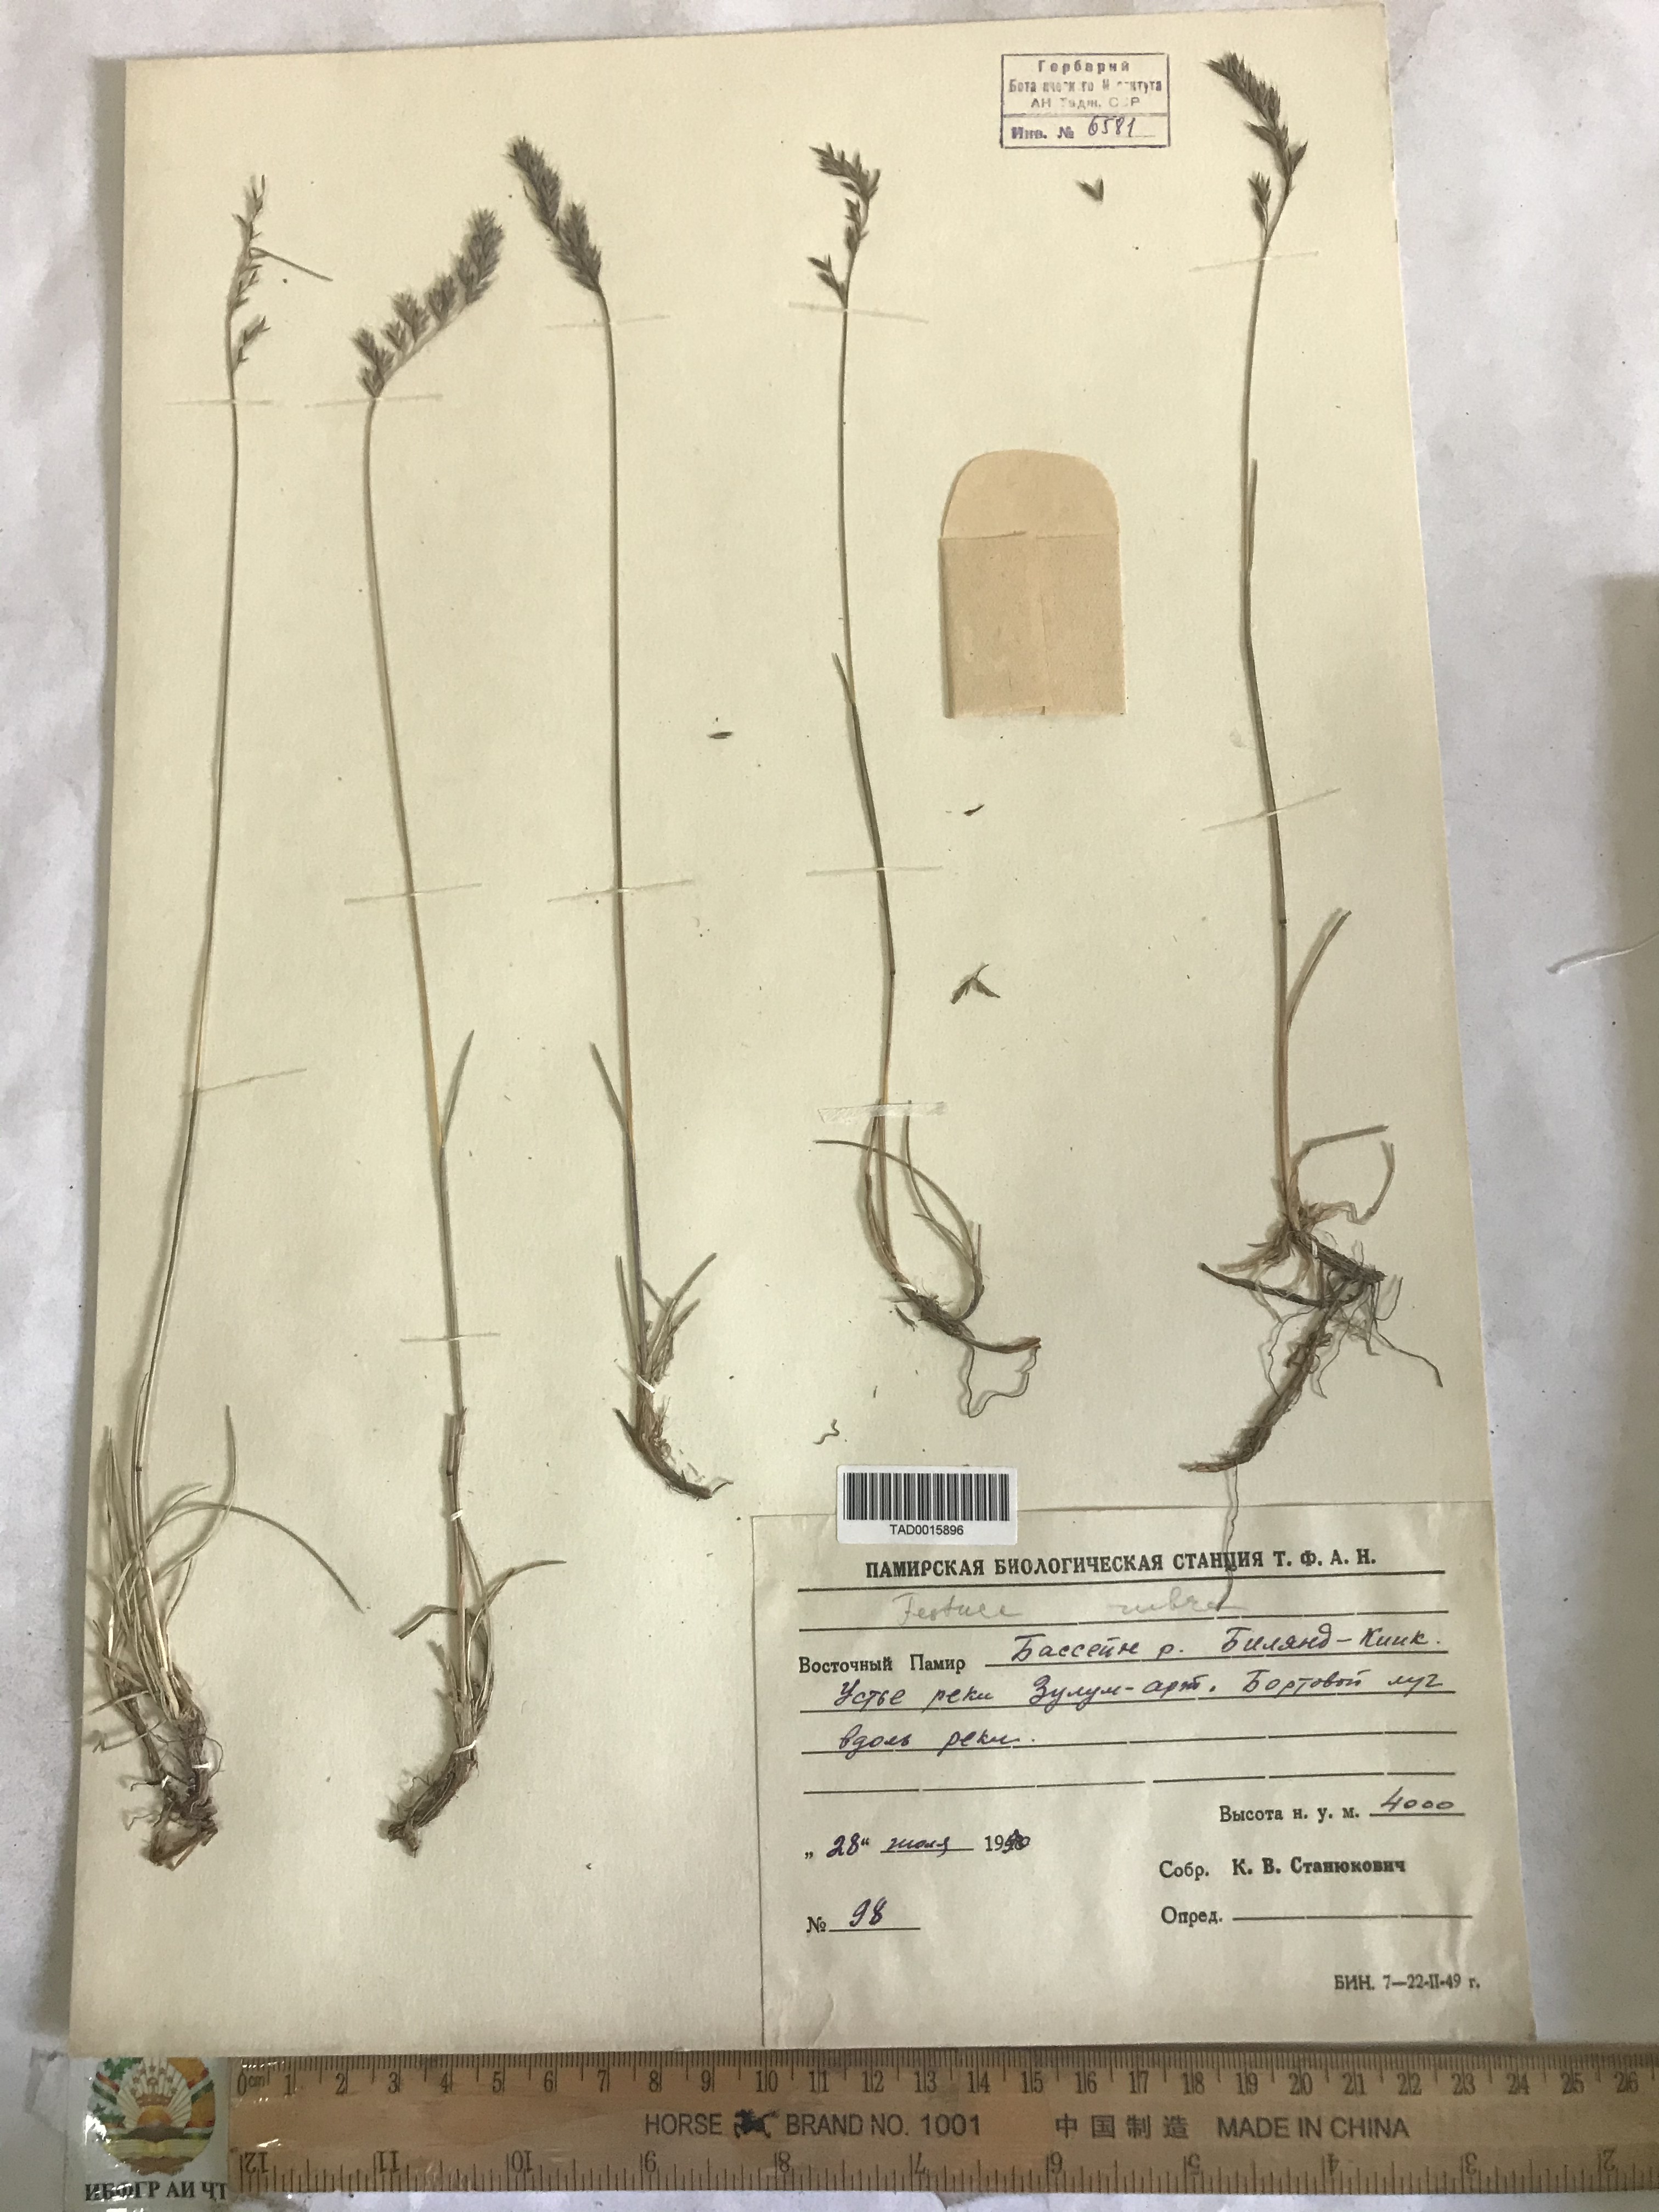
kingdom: Plantae
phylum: Tracheophyta
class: Liliopsida
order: Poales
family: Poaceae
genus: Festuca
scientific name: Festuca rubra
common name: Red fescue
